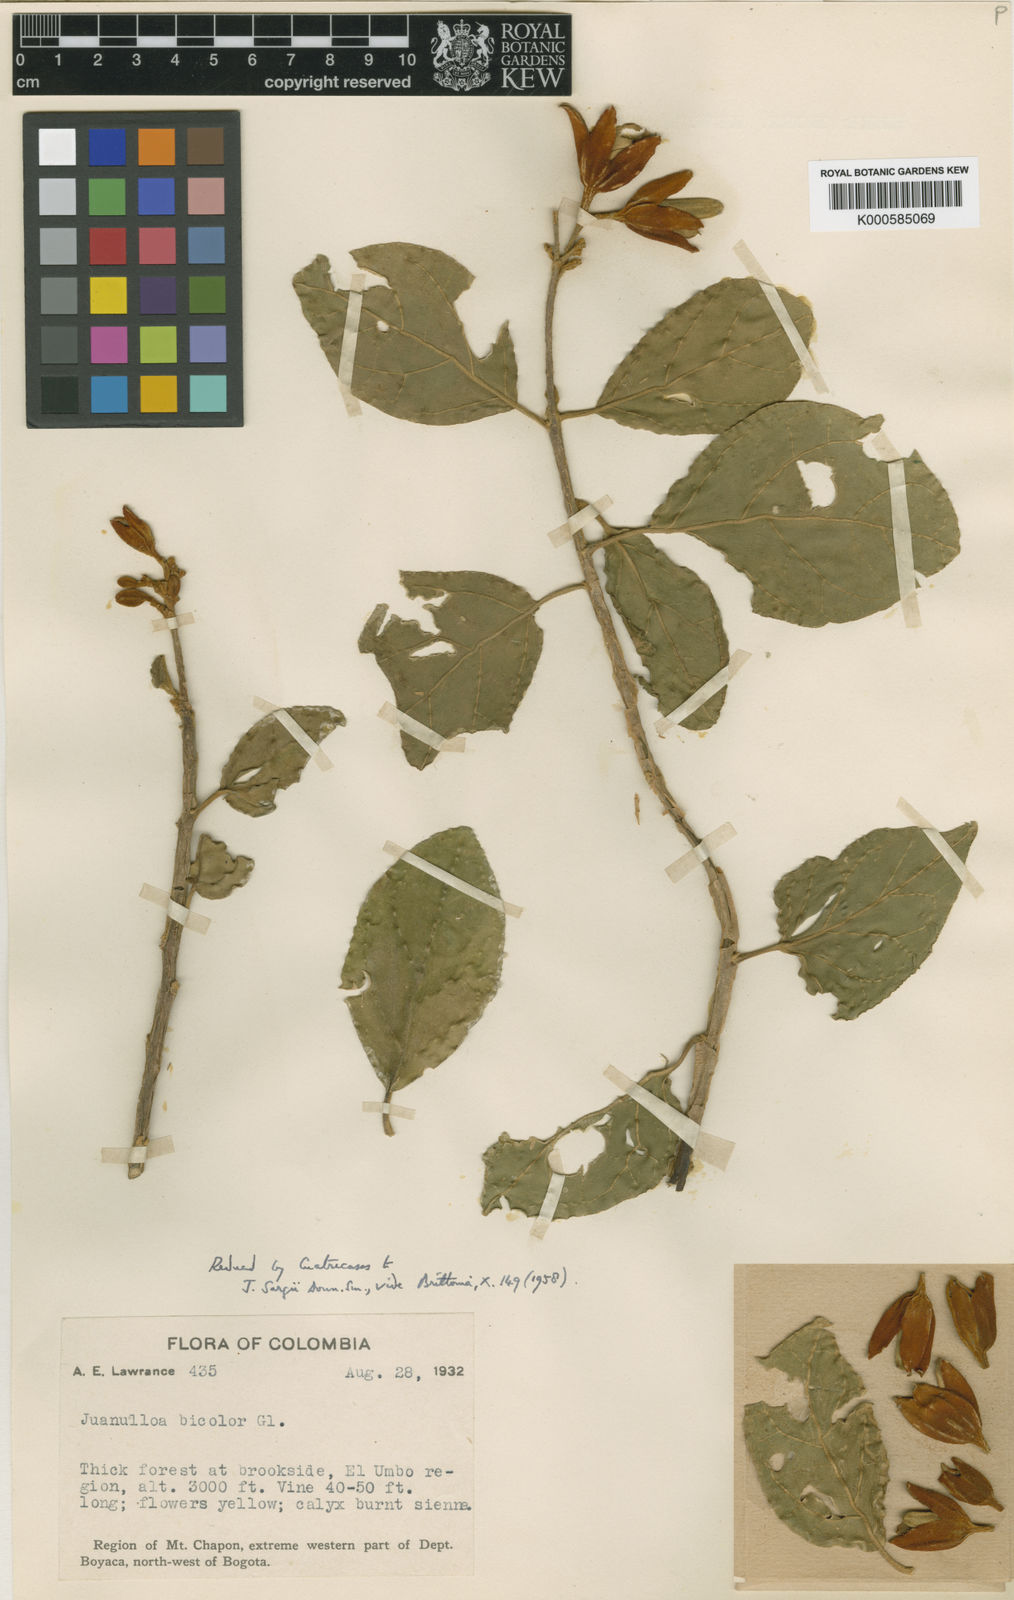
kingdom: Plantae
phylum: Tracheophyta
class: Magnoliopsida
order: Solanales
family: Solanaceae
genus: Juanulloa
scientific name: Juanulloa mexicana
